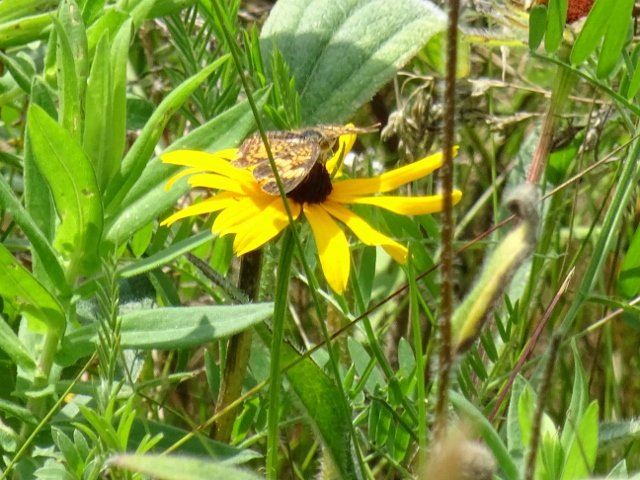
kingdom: Animalia
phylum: Arthropoda
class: Insecta
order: Lepidoptera
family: Nymphalidae
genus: Phyciodes
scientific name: Phyciodes
